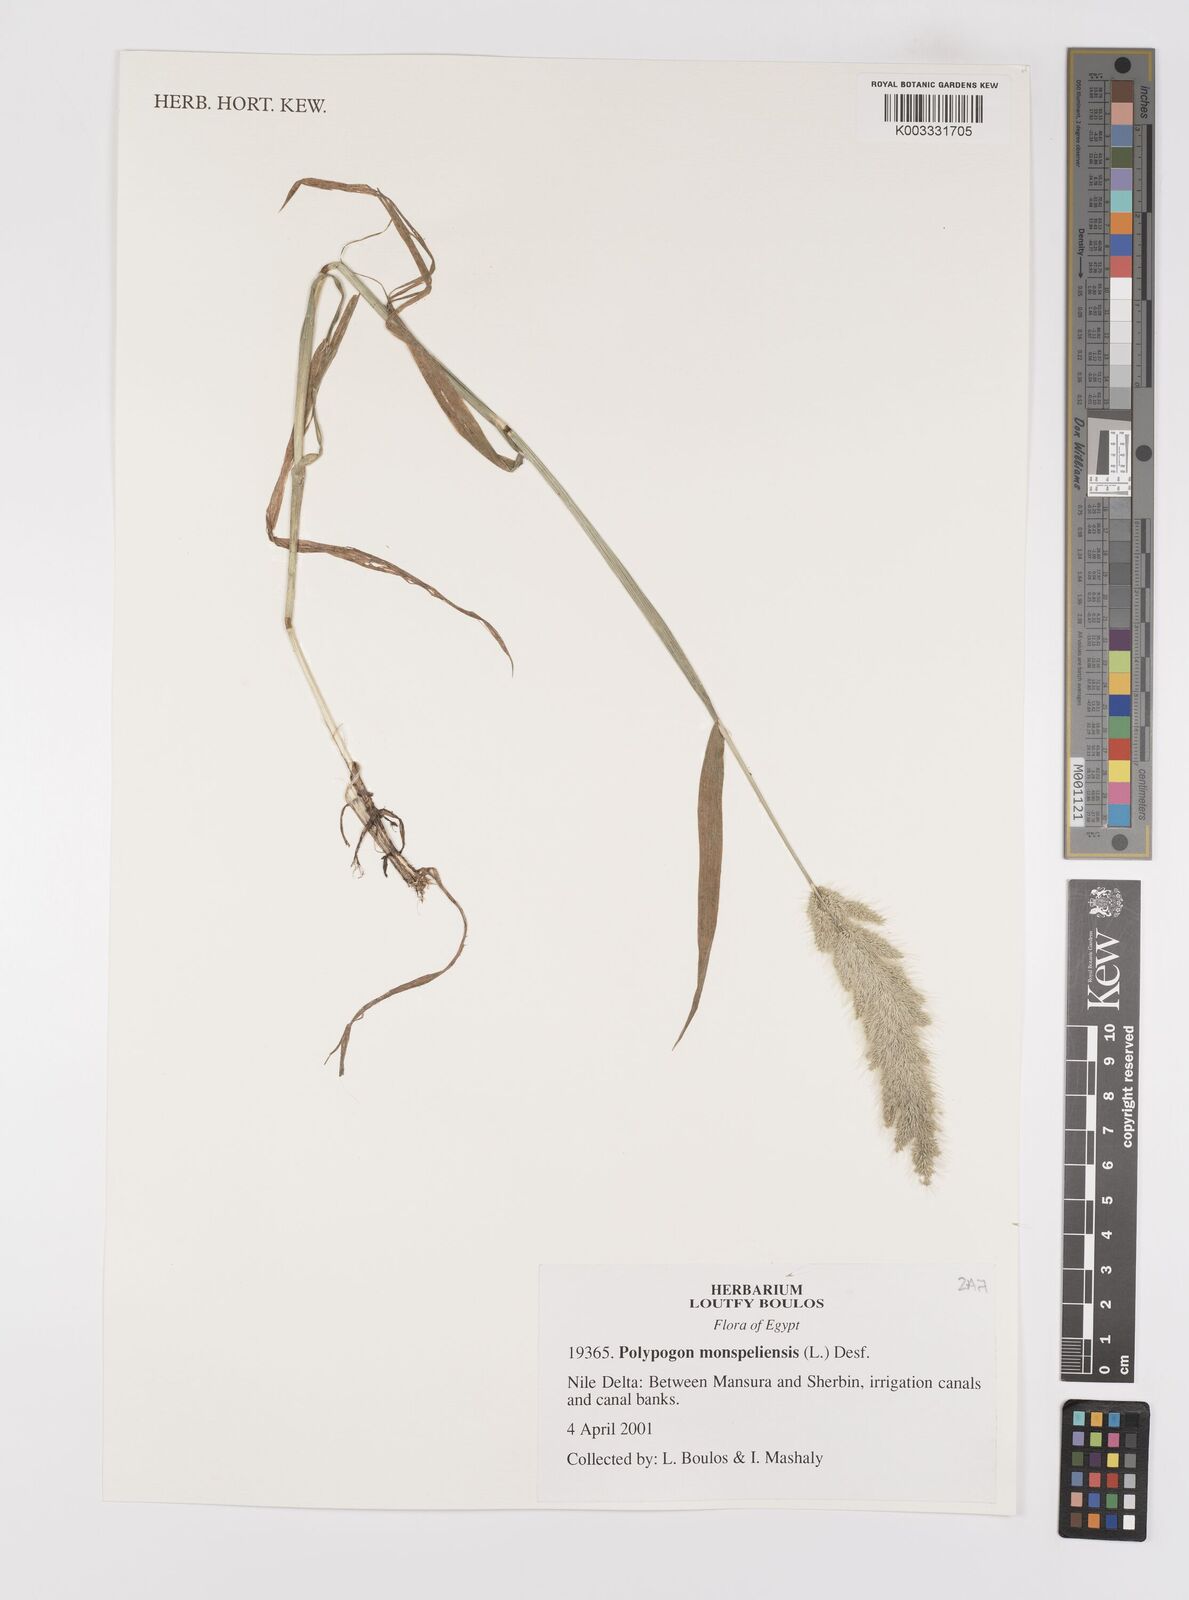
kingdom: Plantae
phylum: Tracheophyta
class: Liliopsida
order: Poales
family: Poaceae
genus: Polypogon
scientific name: Polypogon monspeliensis
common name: Annual rabbitsfoot grass
